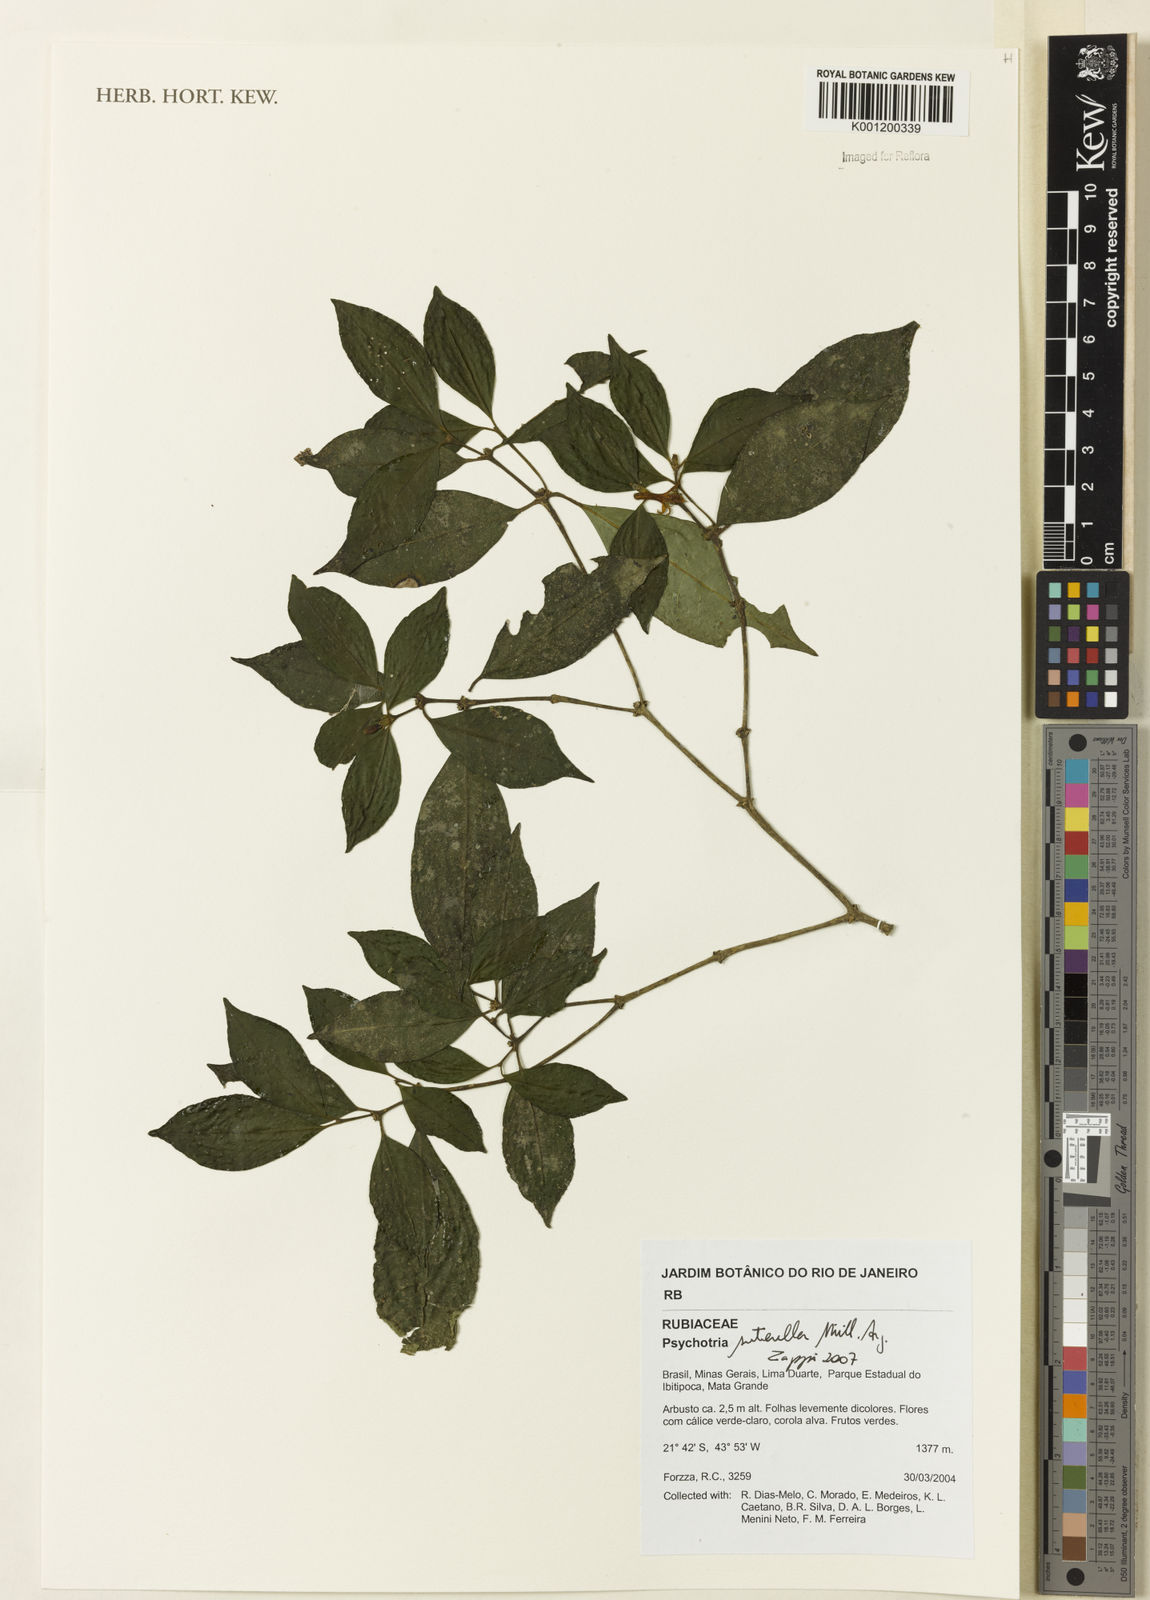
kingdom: Plantae
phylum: Tracheophyta
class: Magnoliopsida
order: Gentianales
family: Rubiaceae
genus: Psychotria
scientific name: Psychotria
